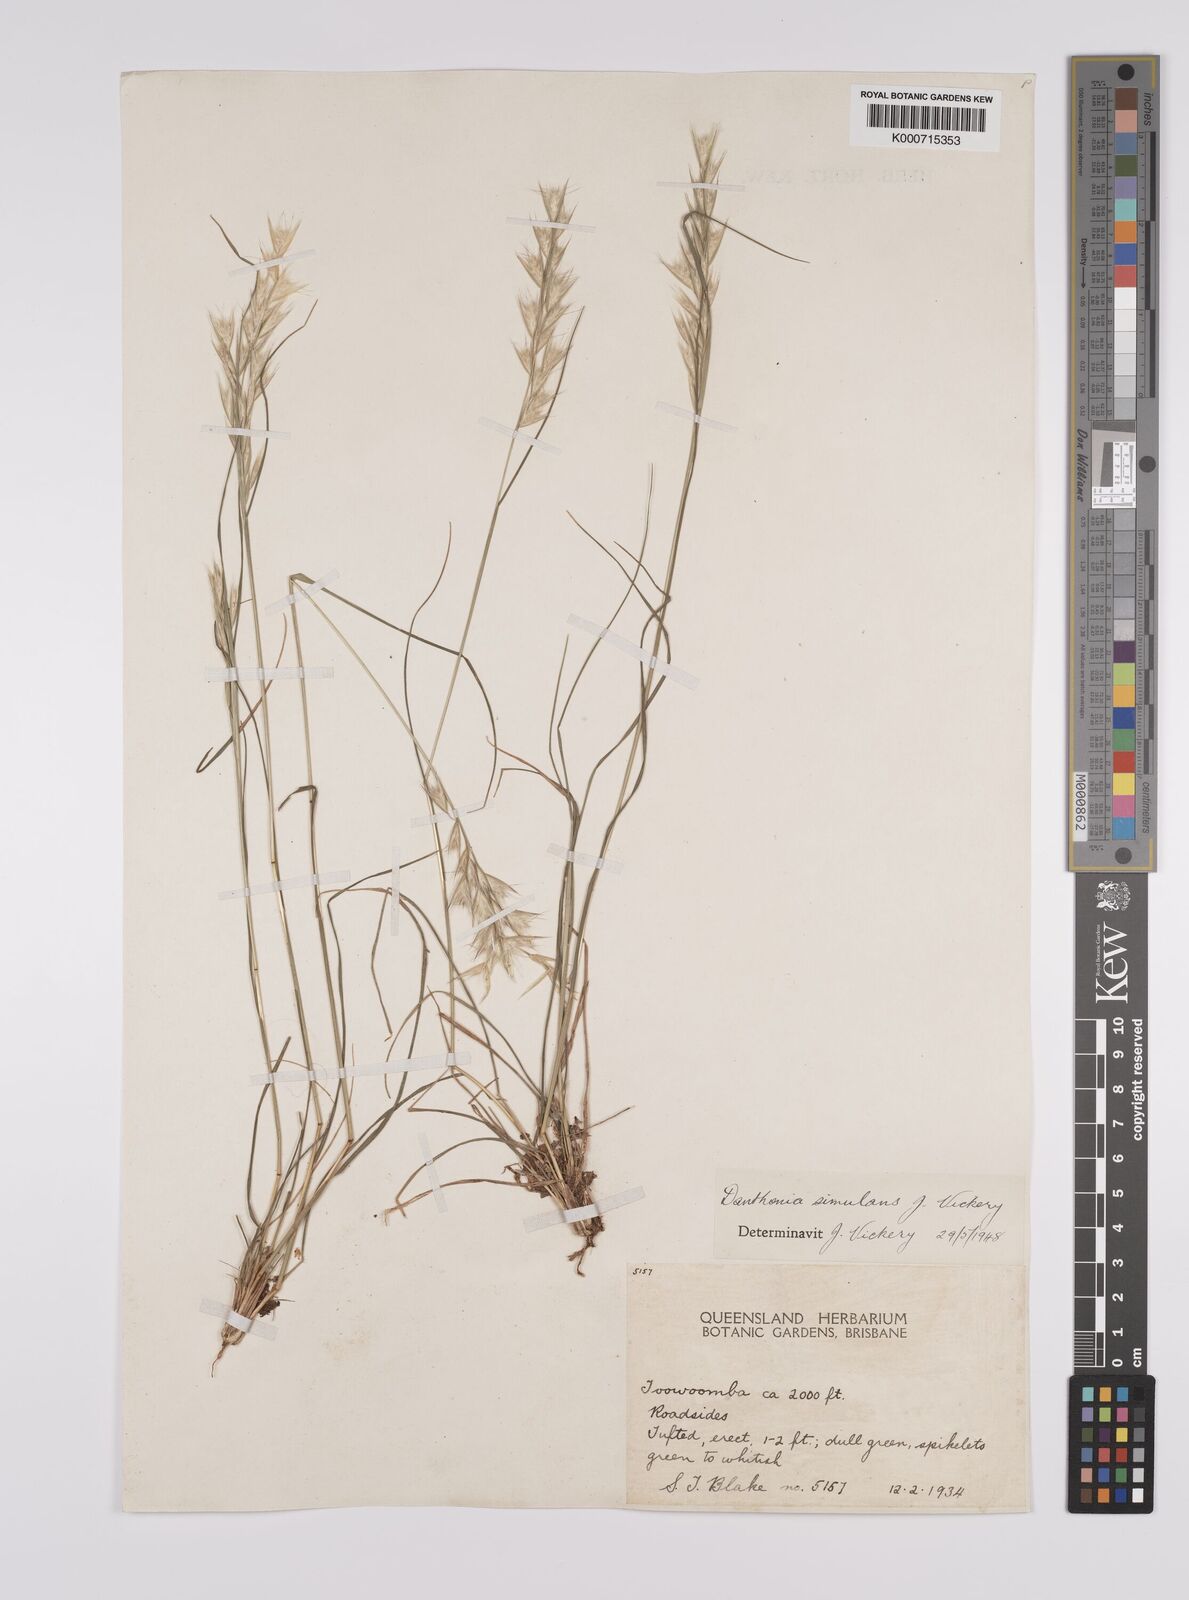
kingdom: Plantae
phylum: Tracheophyta
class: Liliopsida
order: Poales
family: Poaceae
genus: Rytidosperma
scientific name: Rytidosperma bipartitum
